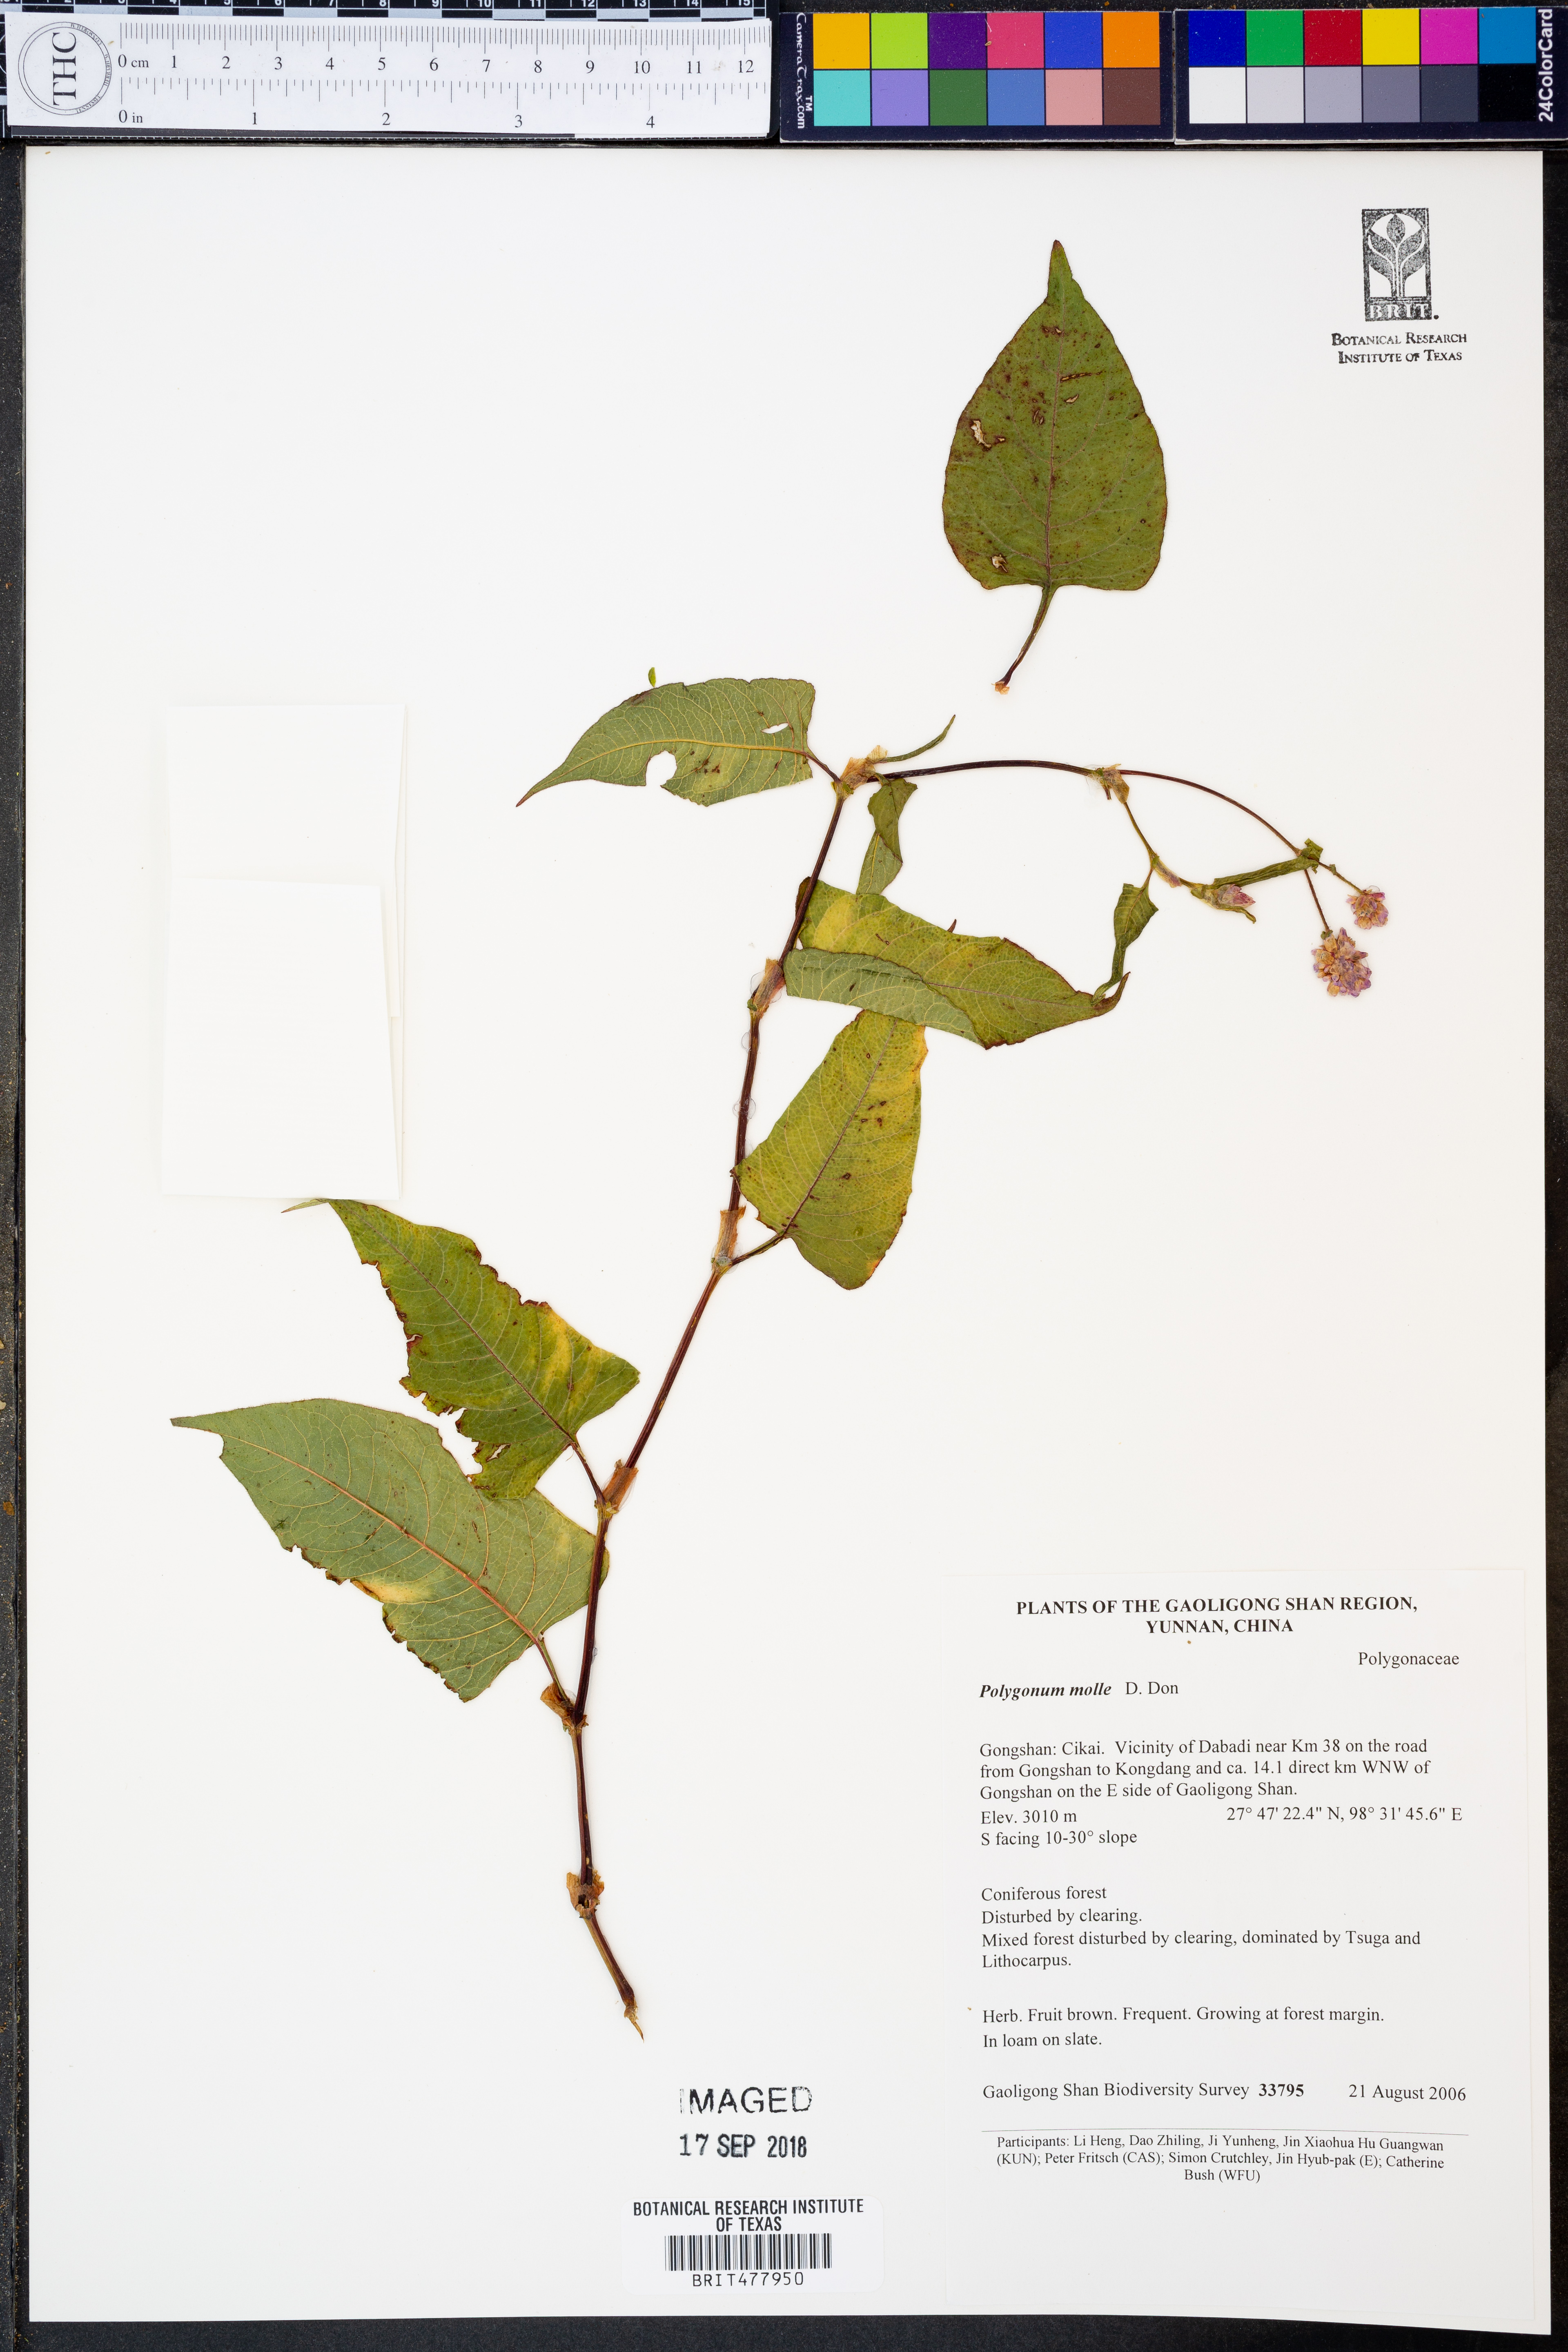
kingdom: Plantae
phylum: Tracheophyta
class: Magnoliopsida
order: Caryophyllales
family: Polygonaceae
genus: Koenigia
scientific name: Koenigia mollis
